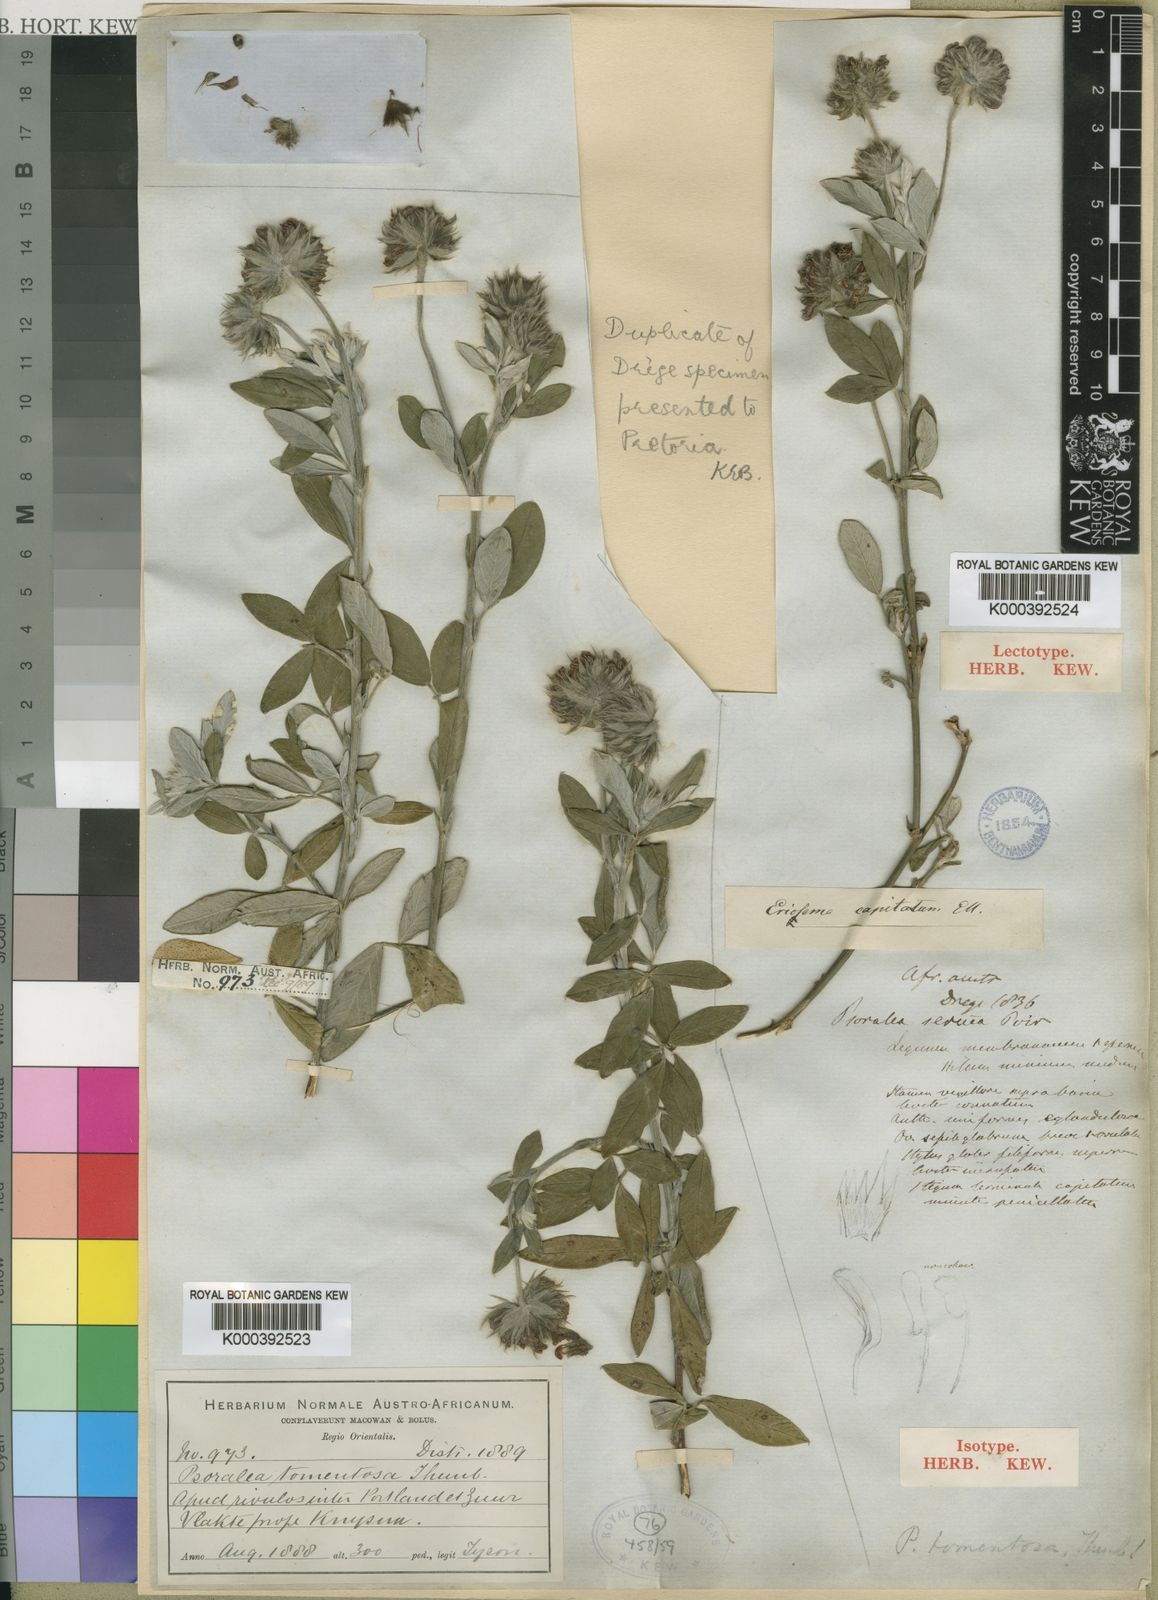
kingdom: Plantae
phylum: Tracheophyta
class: Magnoliopsida
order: Fabales
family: Fabaceae
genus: Psoralea
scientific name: Psoralea sericea
